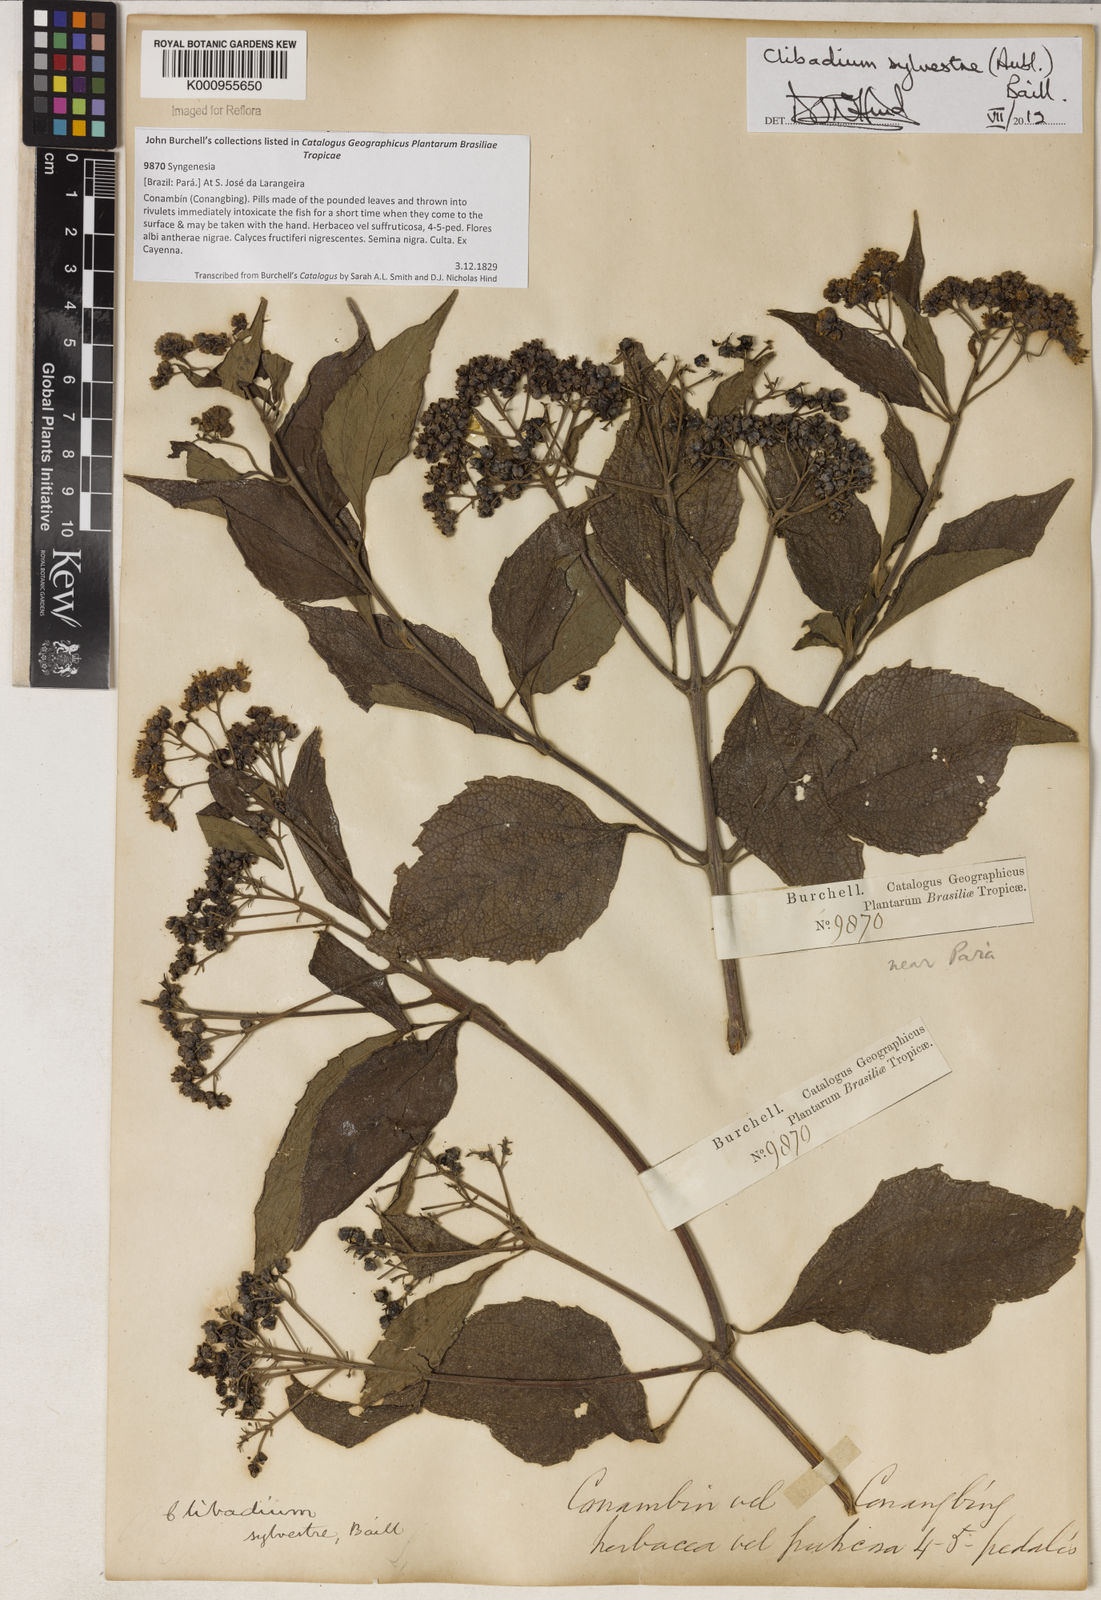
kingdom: Plantae
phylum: Tracheophyta
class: Magnoliopsida
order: Asterales
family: Asteraceae
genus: Clibadium
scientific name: Clibadium sylvestre
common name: Barbasco
